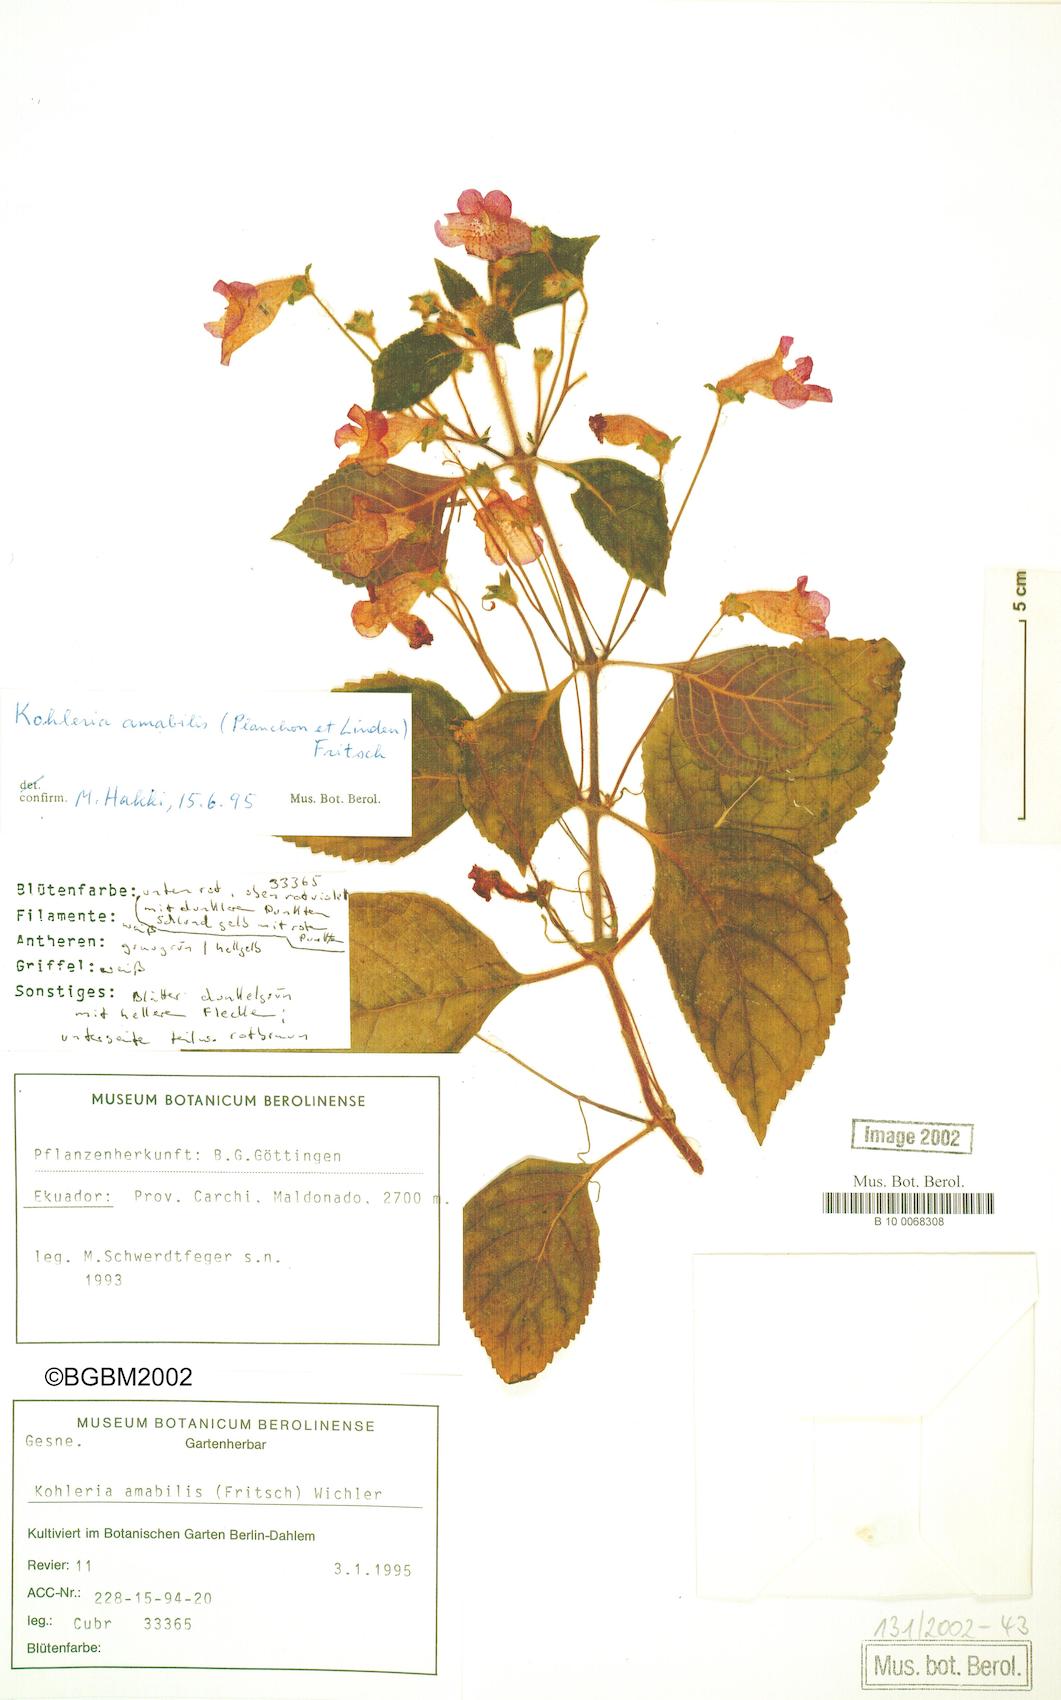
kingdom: Plantae
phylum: Tracheophyta
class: Magnoliopsida
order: Lamiales
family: Gesneriaceae
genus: Kohleria
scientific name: Kohleria amabilis
